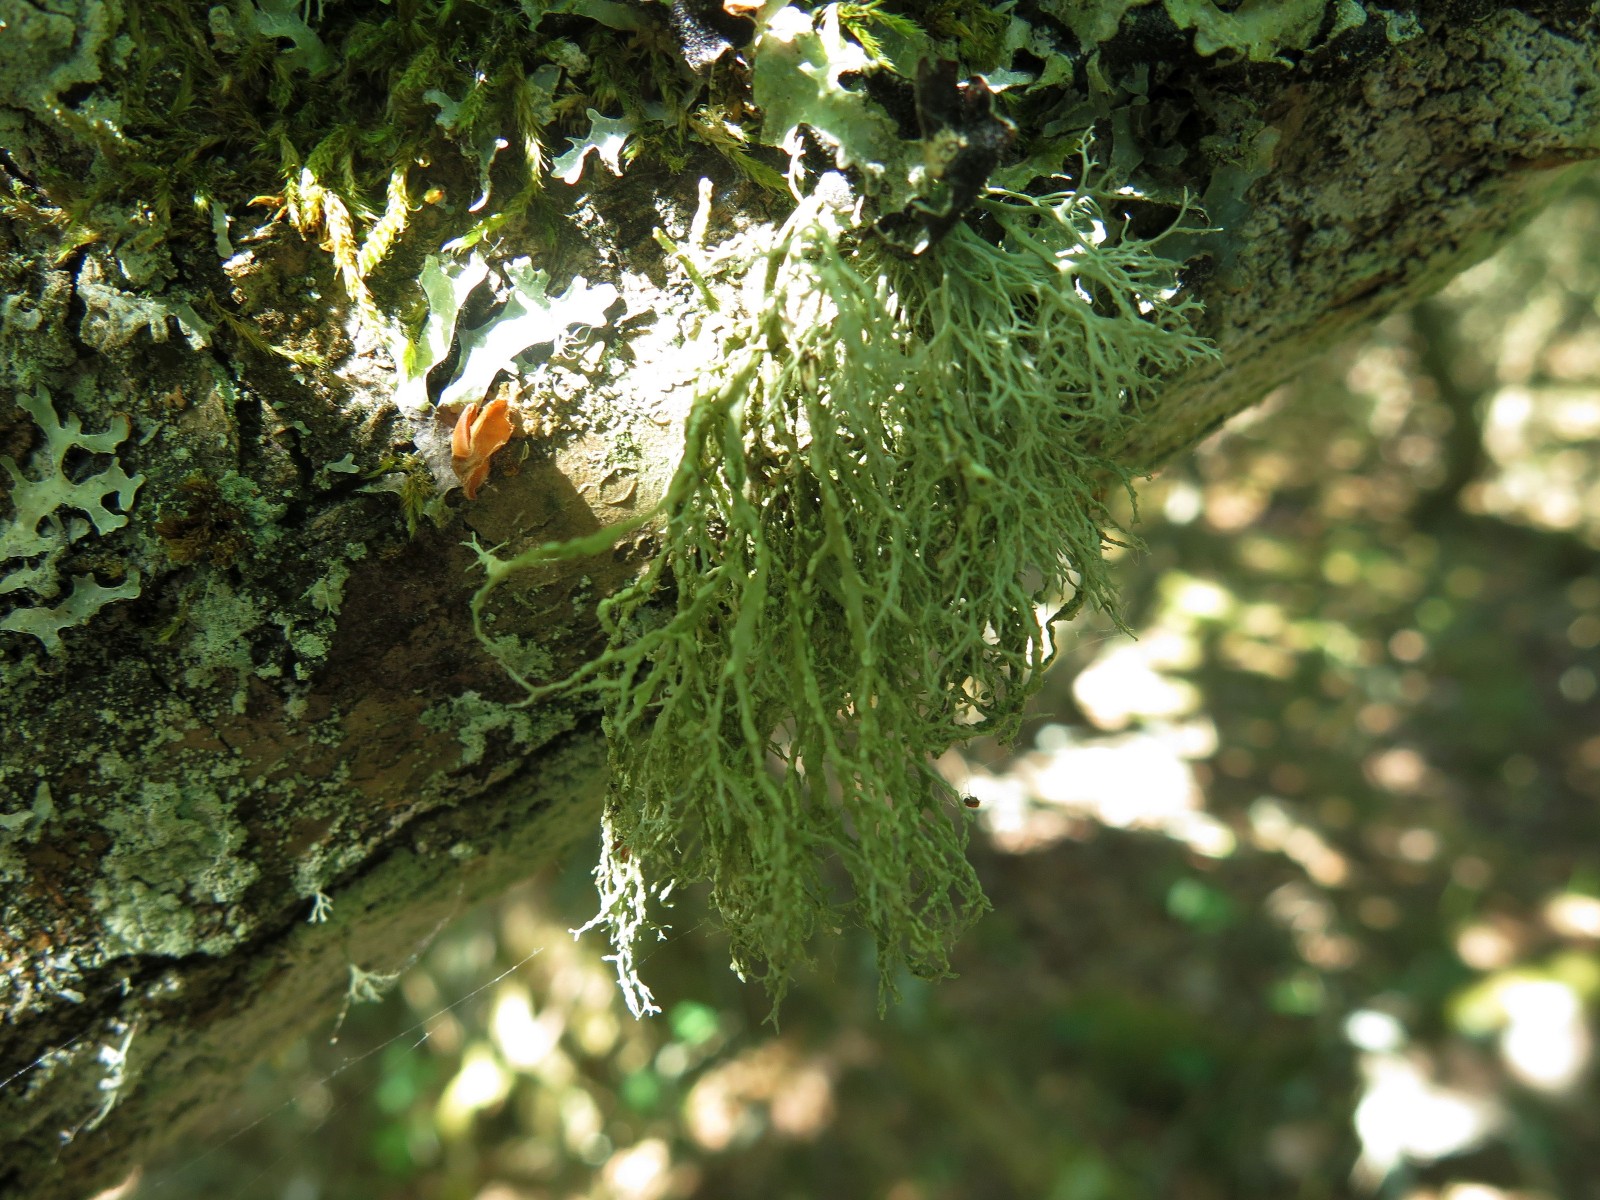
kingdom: Fungi
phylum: Ascomycota
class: Lecanoromycetes
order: Lecanorales
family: Ramalinaceae
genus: Ramalina
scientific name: Ramalina farinacea
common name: melet grenlav
